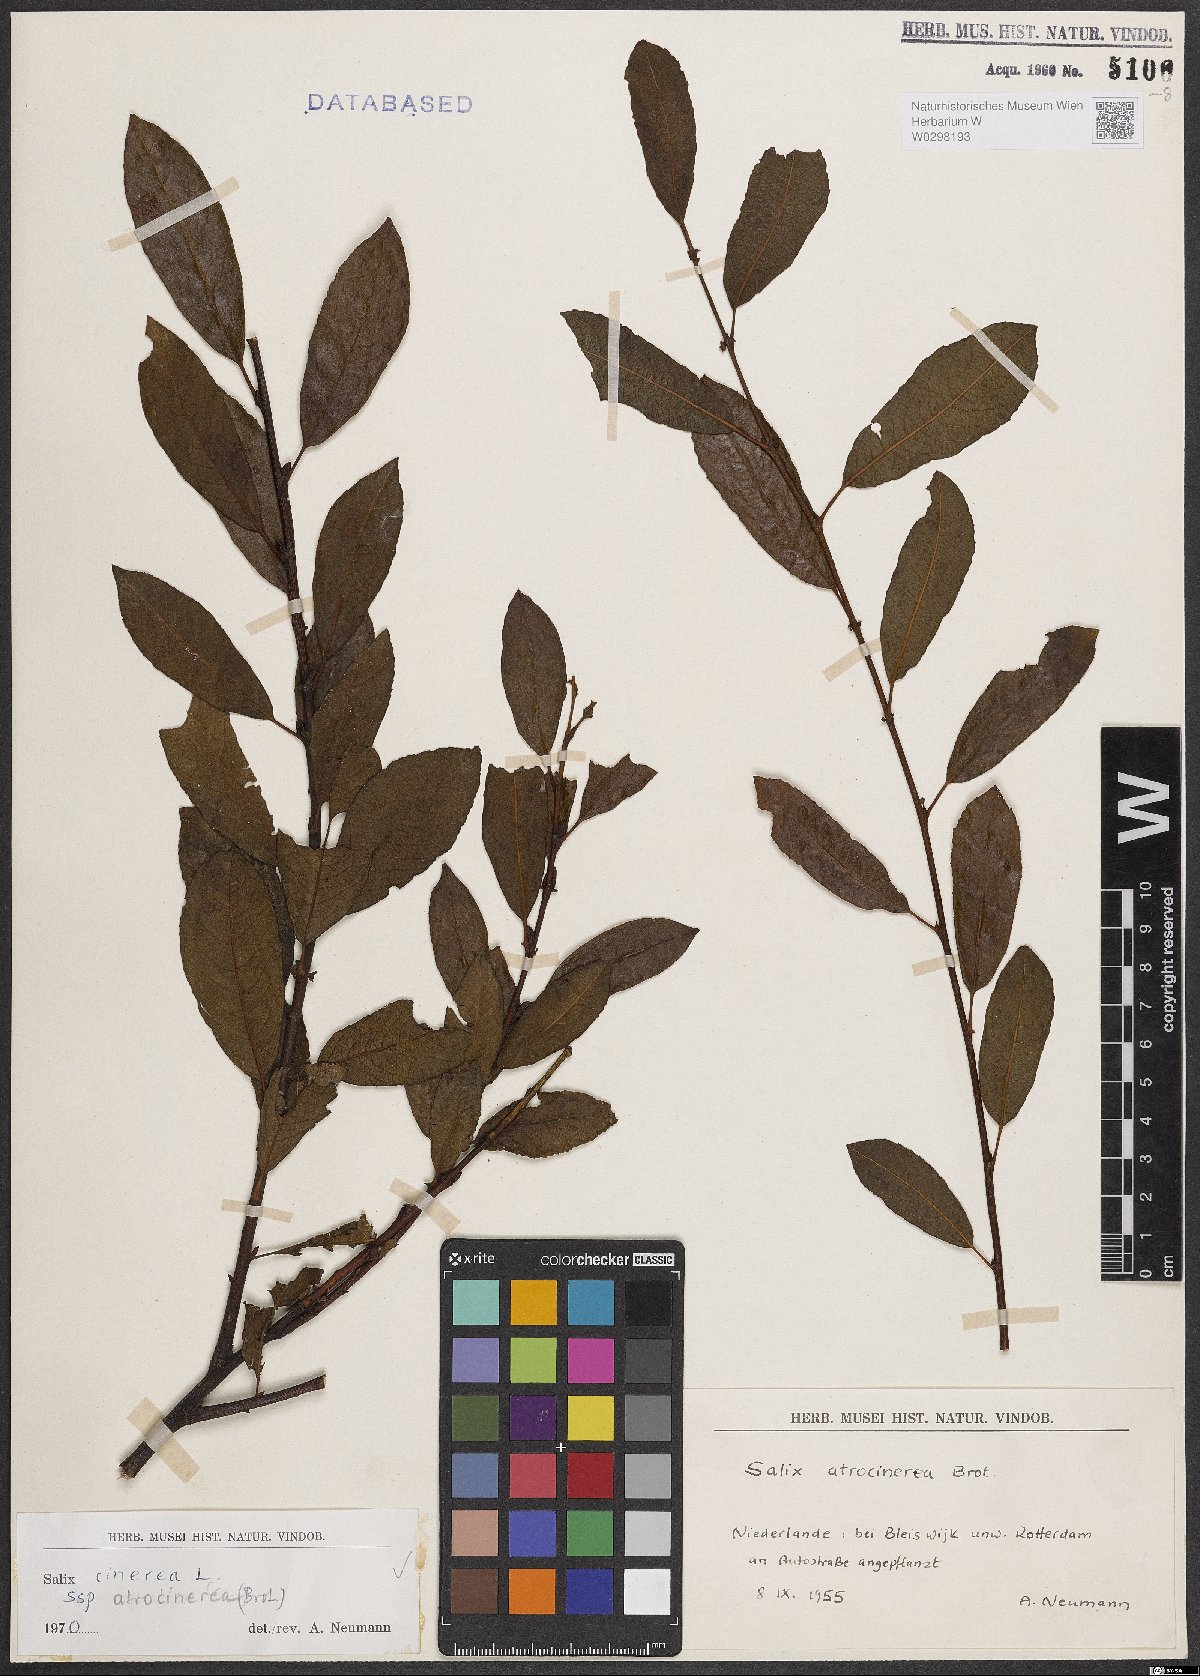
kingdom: Plantae
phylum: Tracheophyta
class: Magnoliopsida
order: Malpighiales
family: Salicaceae
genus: Salix
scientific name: Salix atrocinerea
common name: Rusty willow
